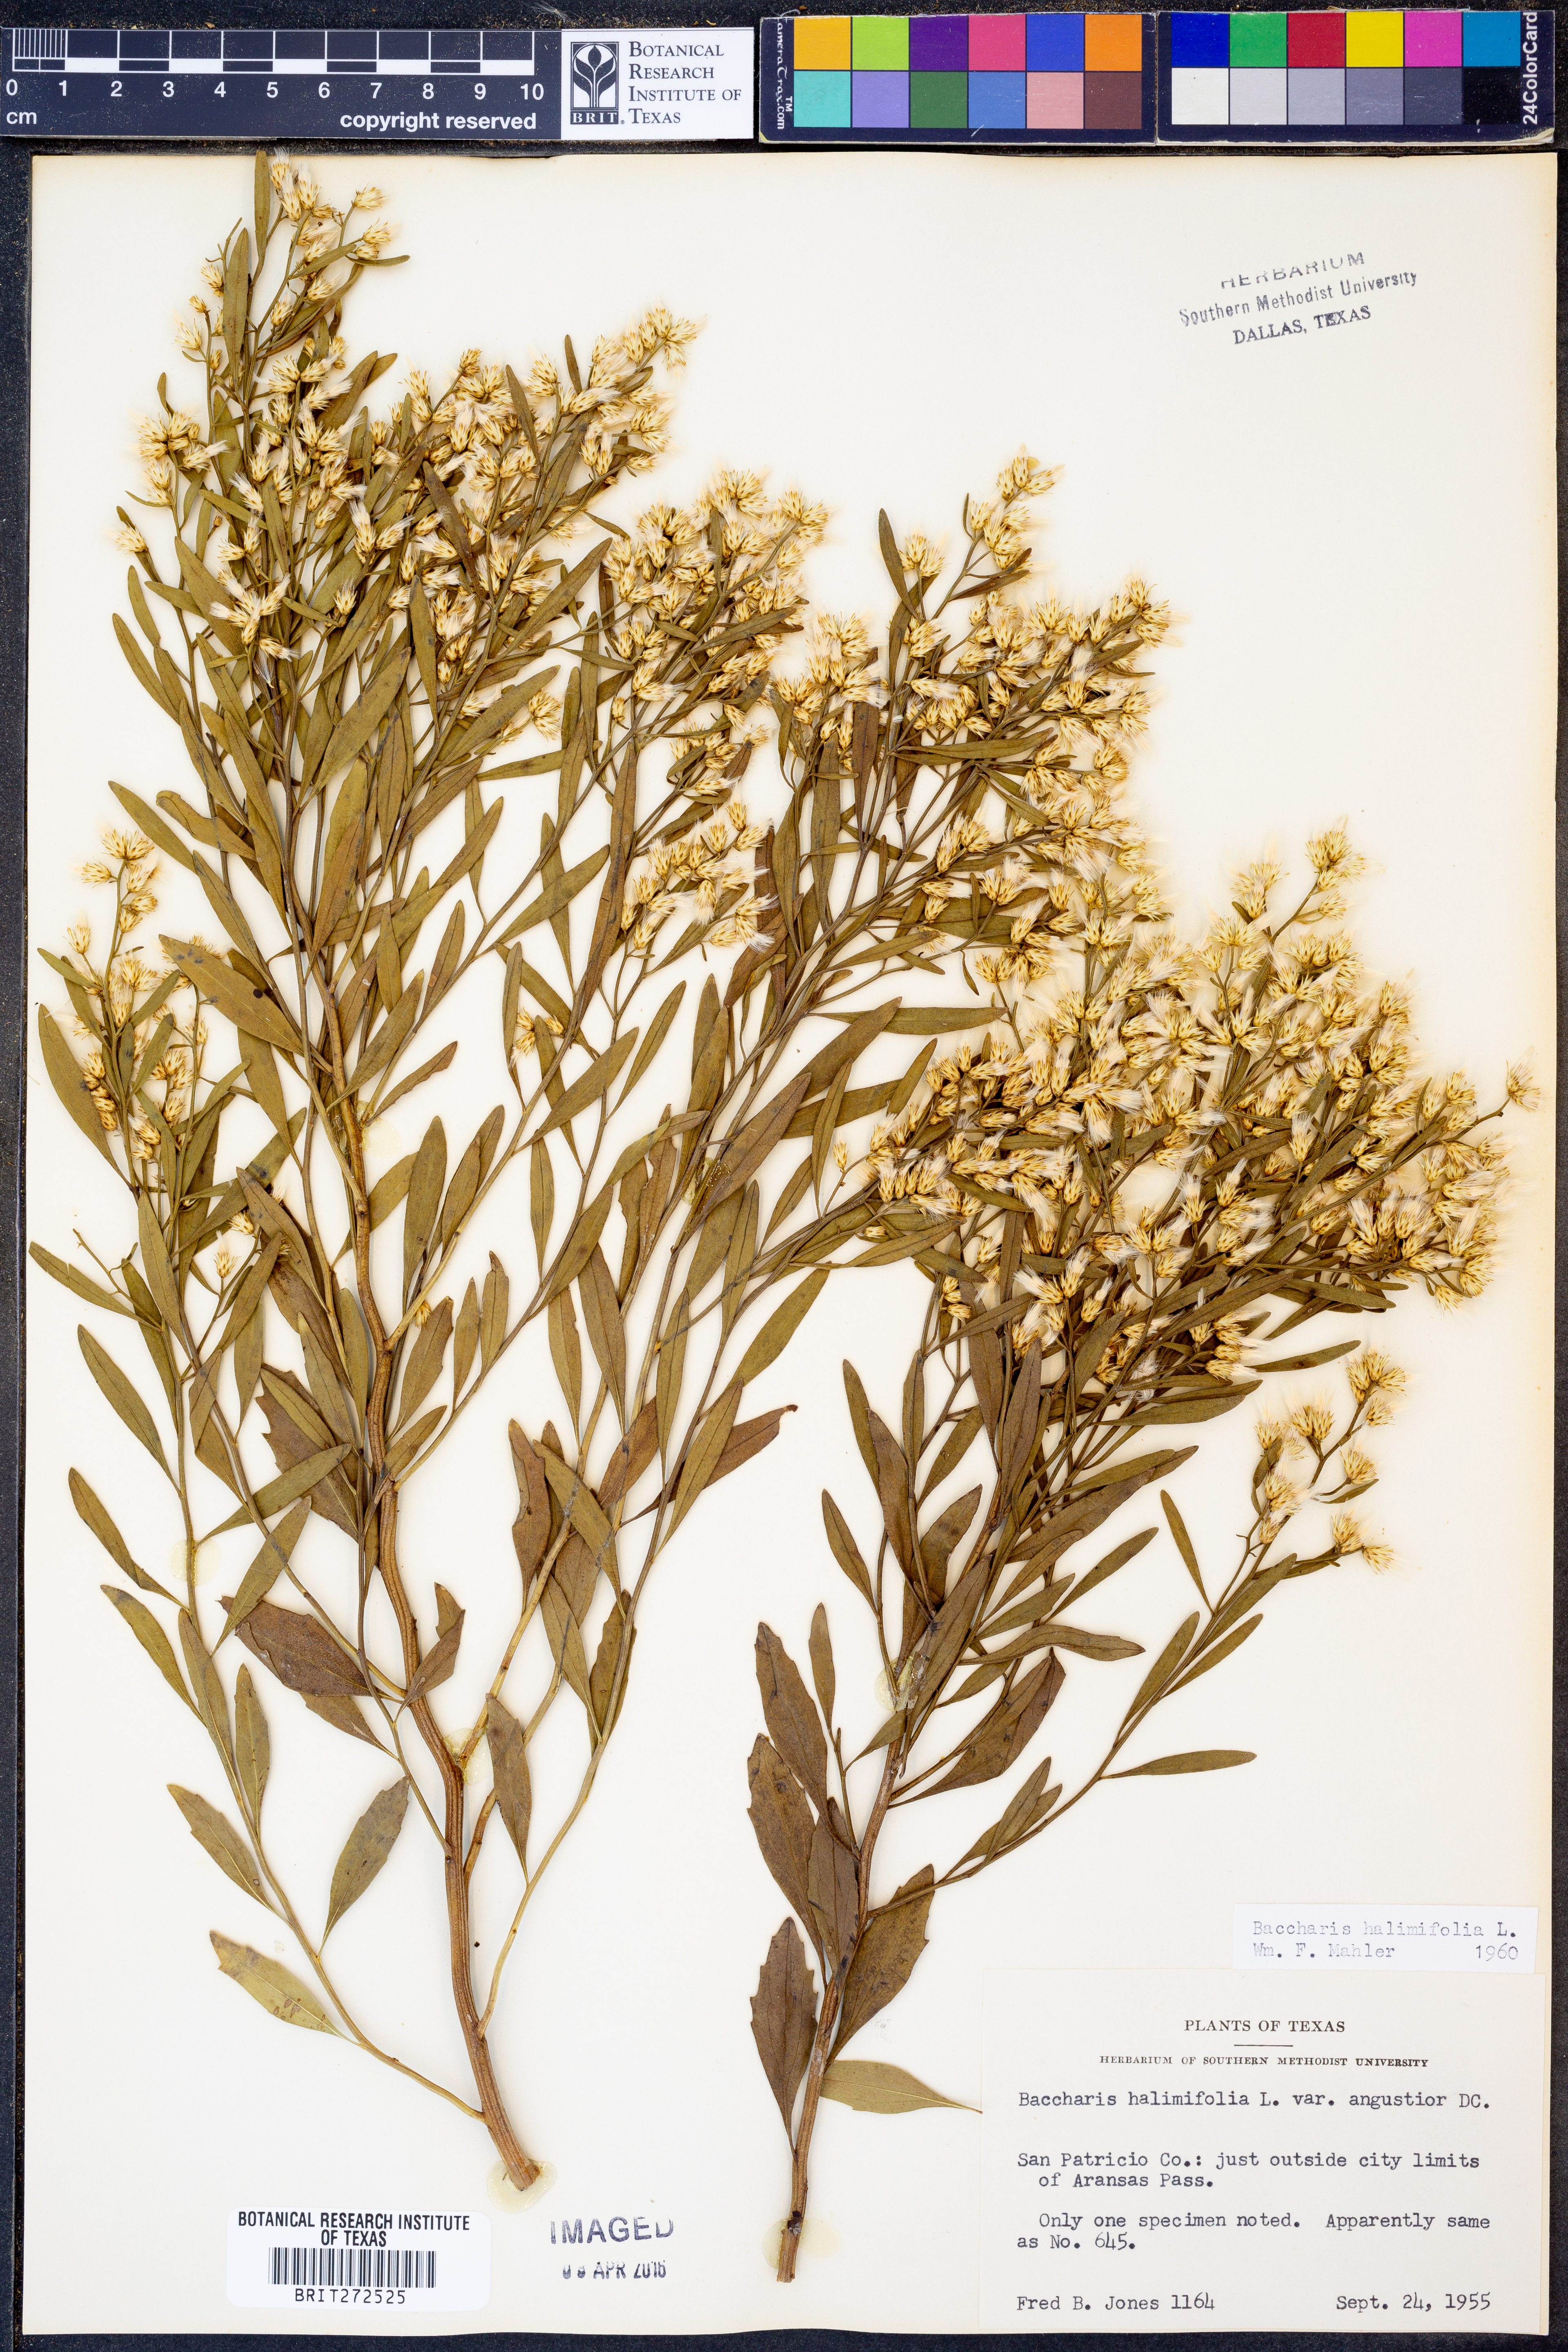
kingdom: Plantae
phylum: Tracheophyta
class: Magnoliopsida
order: Asterales
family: Asteraceae
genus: Nidorella
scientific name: Nidorella ivifolia
